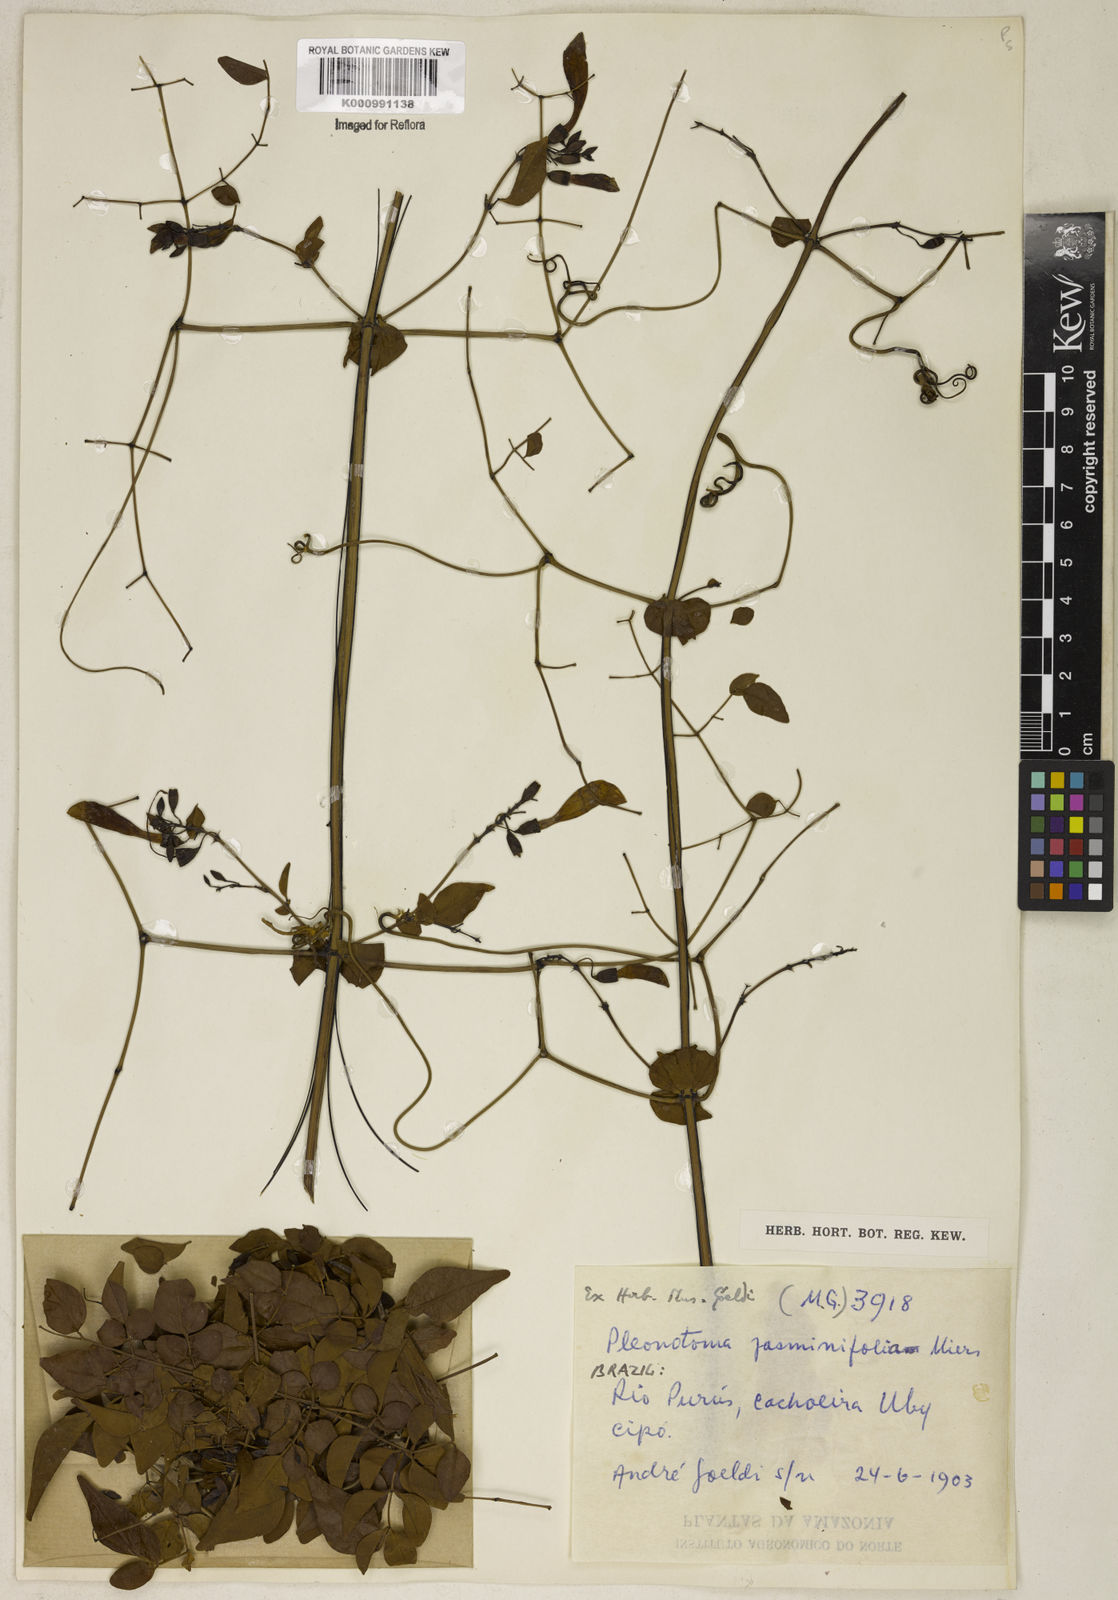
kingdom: Plantae
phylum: Tracheophyta
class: Magnoliopsida
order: Lamiales
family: Bignoniaceae
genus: Pleonotoma
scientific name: Pleonotoma jasminifolia
